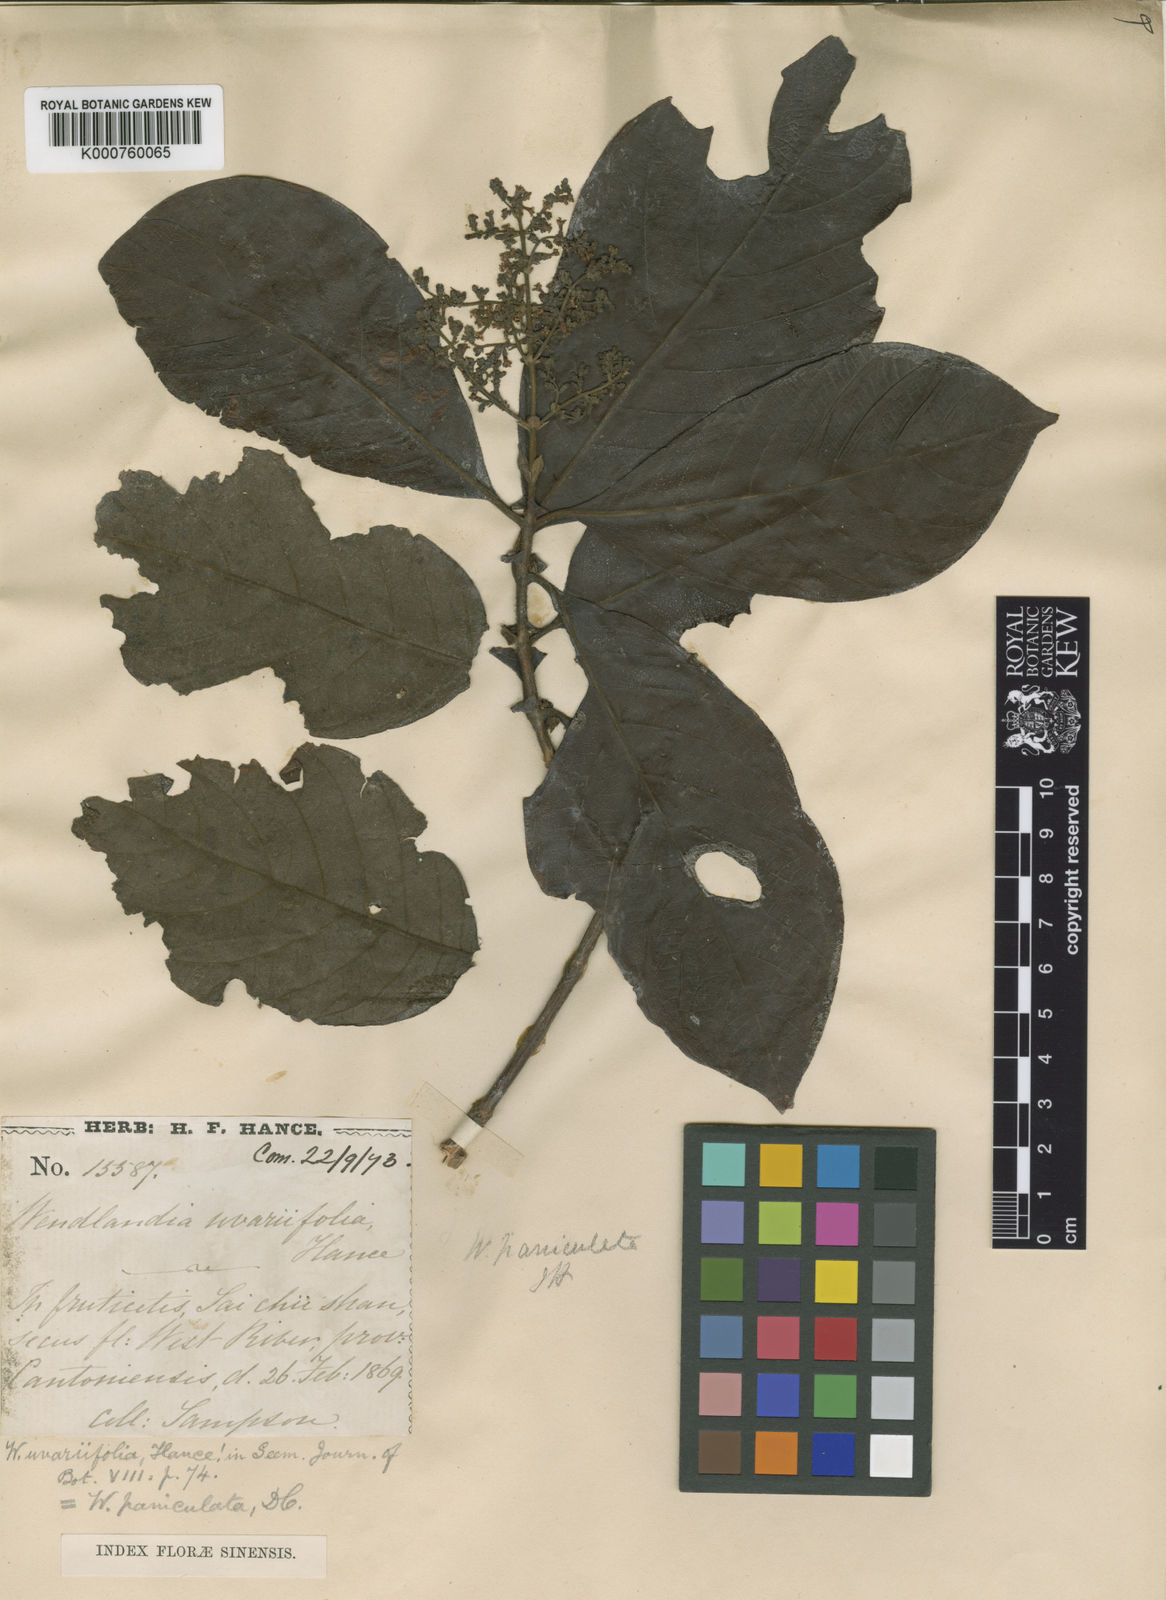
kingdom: Plantae
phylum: Tracheophyta
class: Magnoliopsida
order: Gentianales
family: Rubiaceae
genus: Wendlandia
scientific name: Wendlandia uvariifolia
